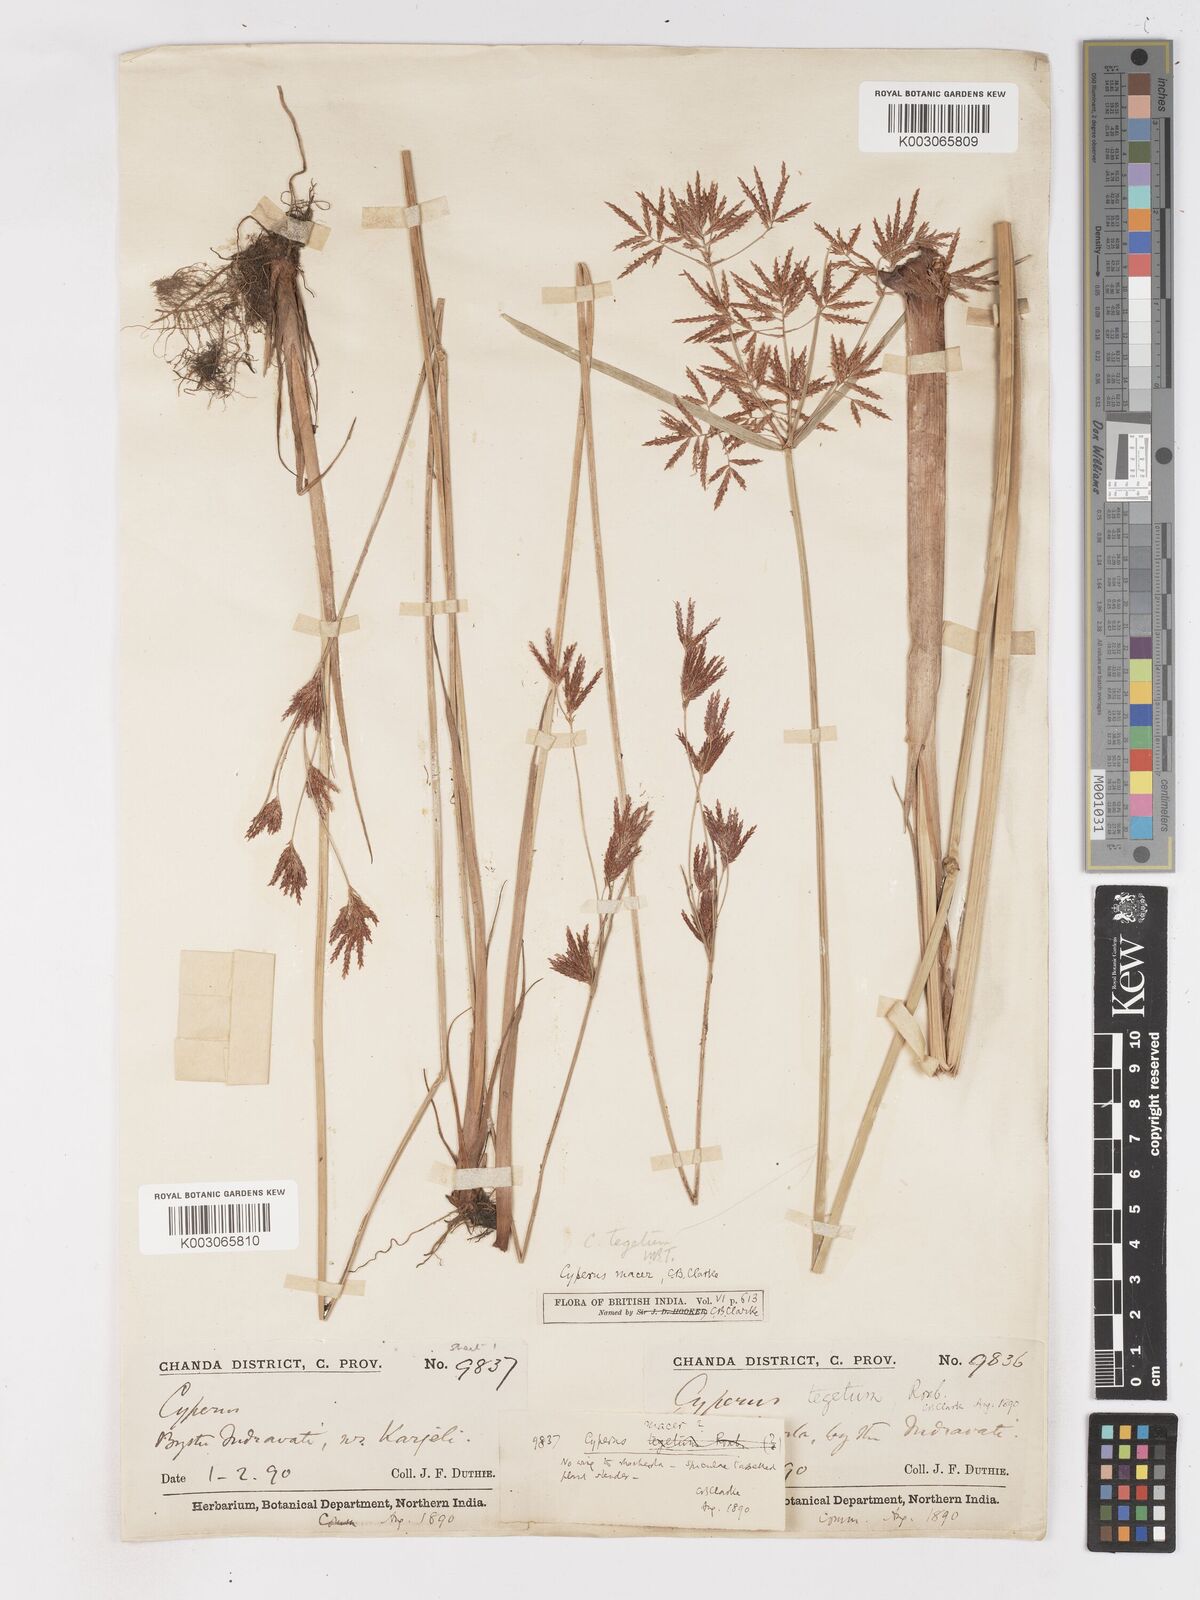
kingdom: Plantae
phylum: Tracheophyta
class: Liliopsida
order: Poales
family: Cyperaceae
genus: Cyperus
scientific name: Cyperus macer
